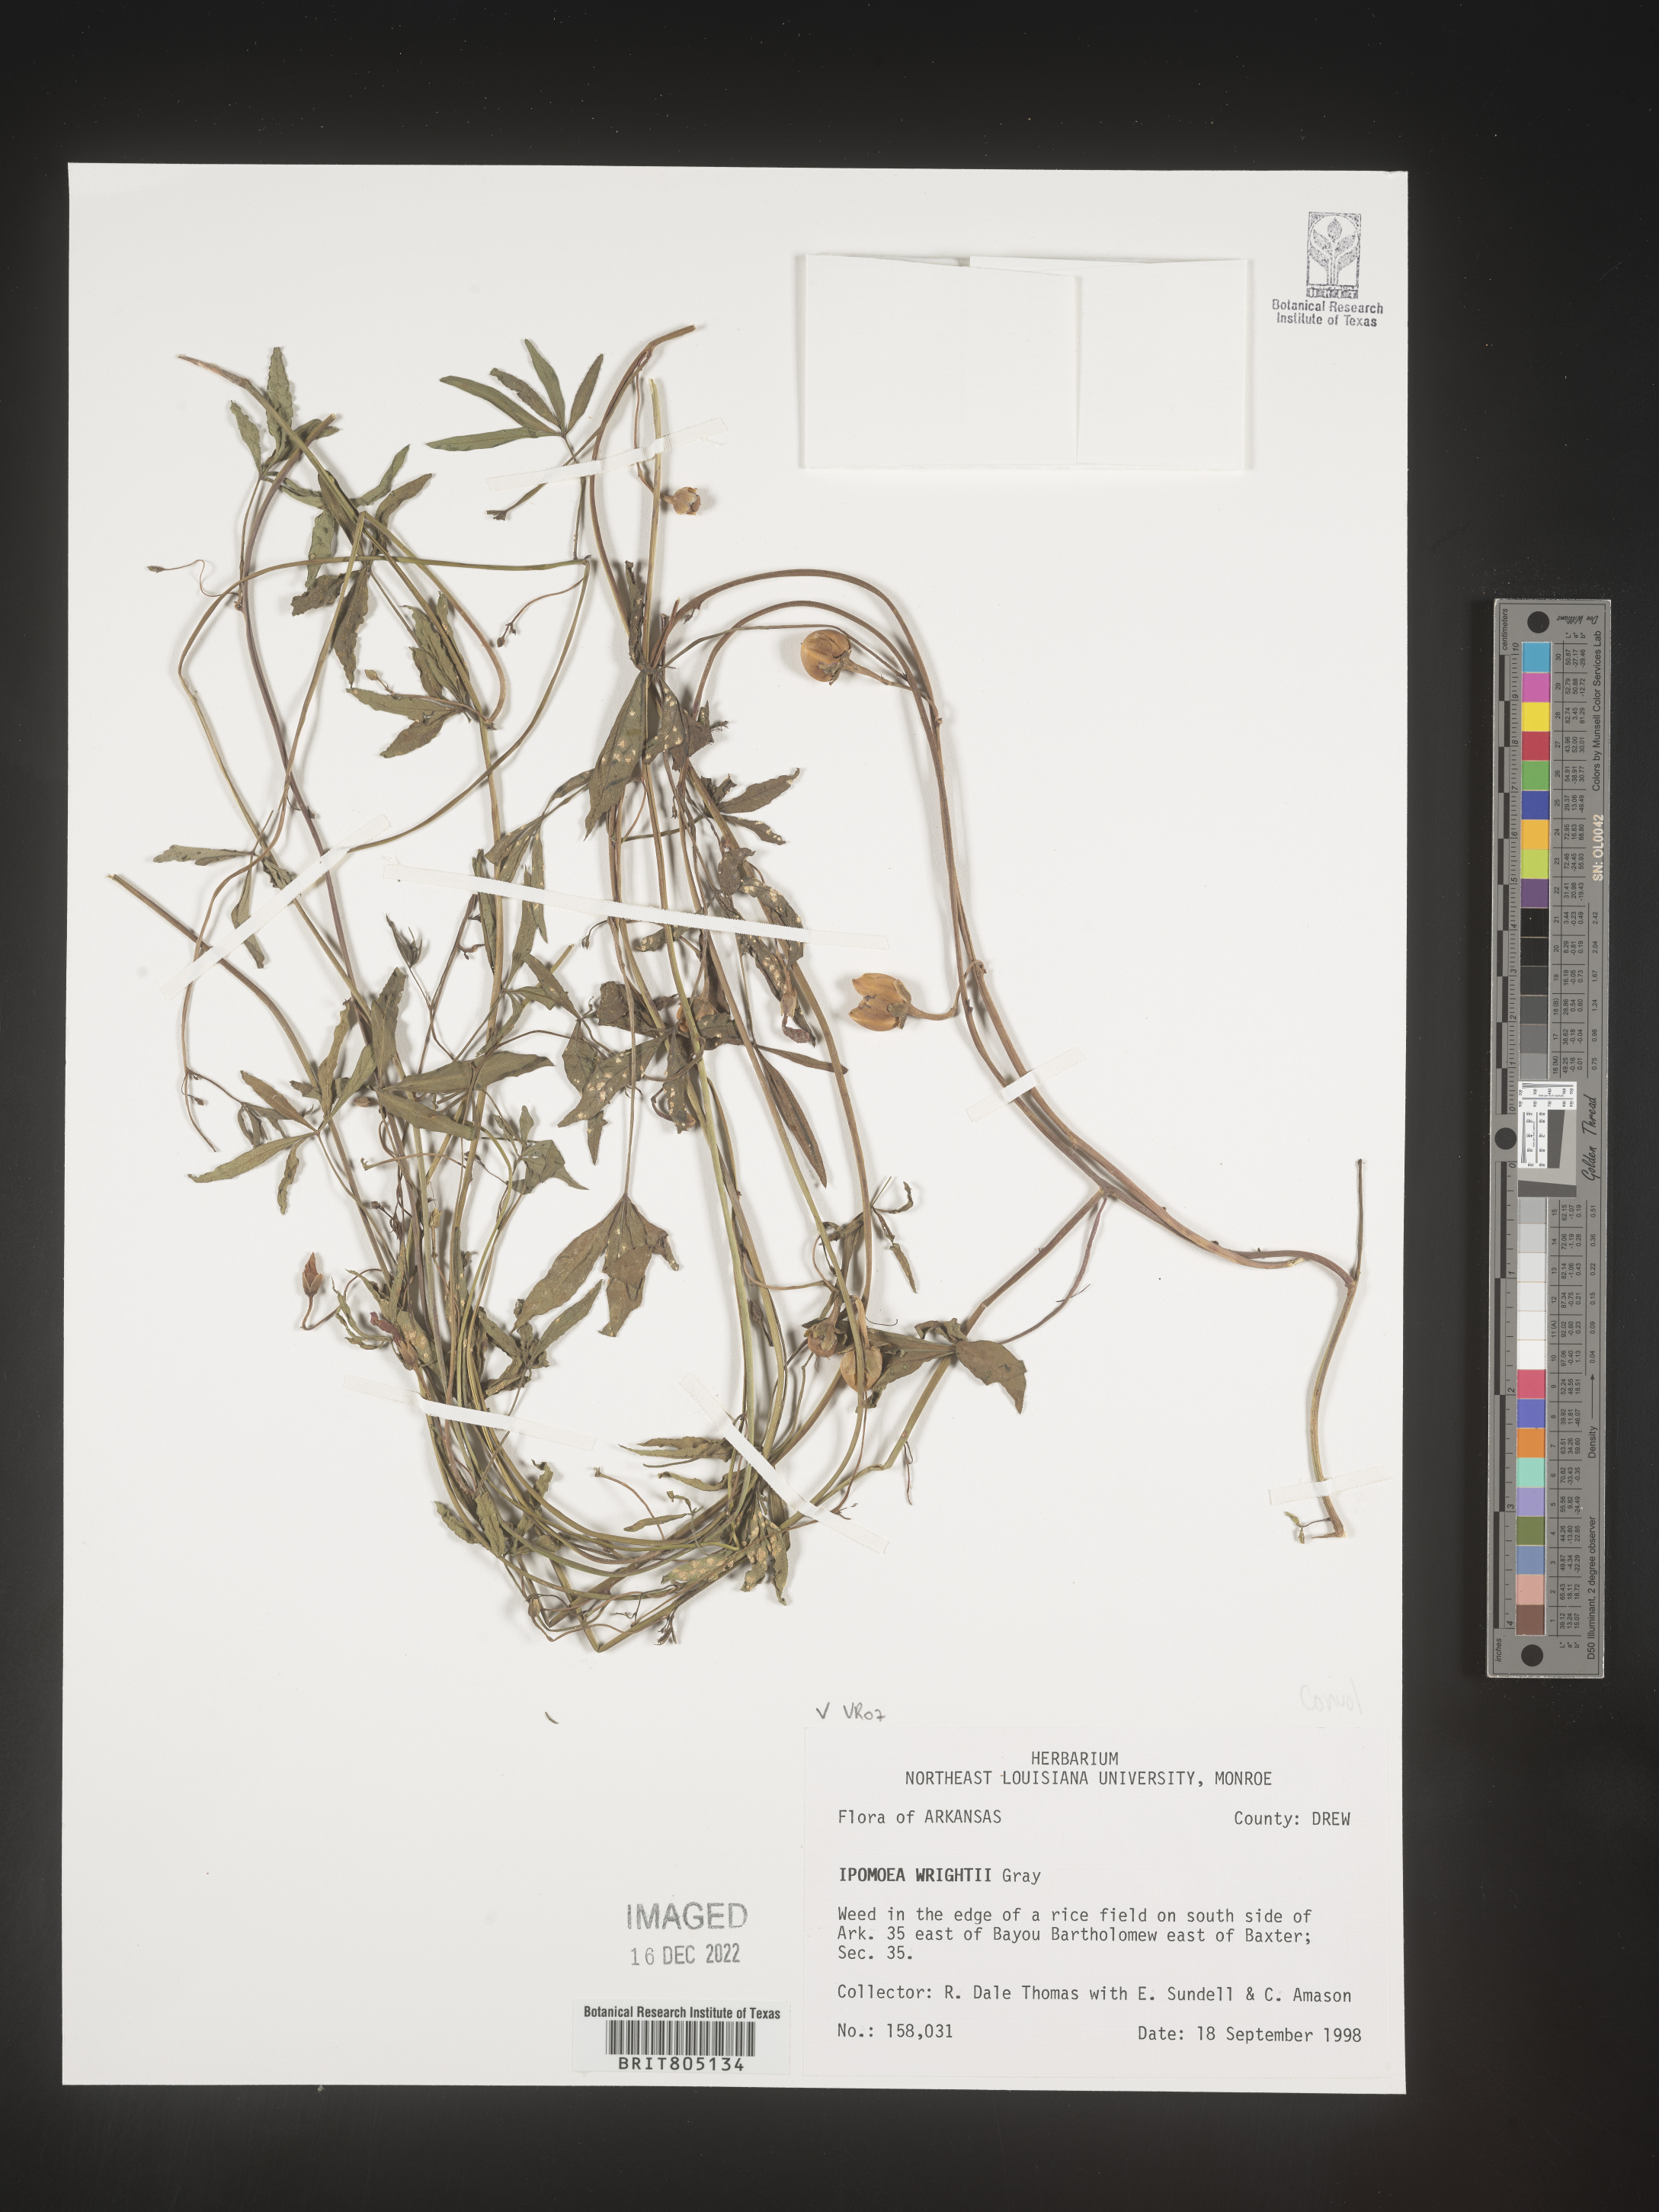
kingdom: Plantae
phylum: Tracheophyta
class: Magnoliopsida
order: Solanales
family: Convolvulaceae
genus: Ipomoea
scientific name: Ipomoea heptaphylla
